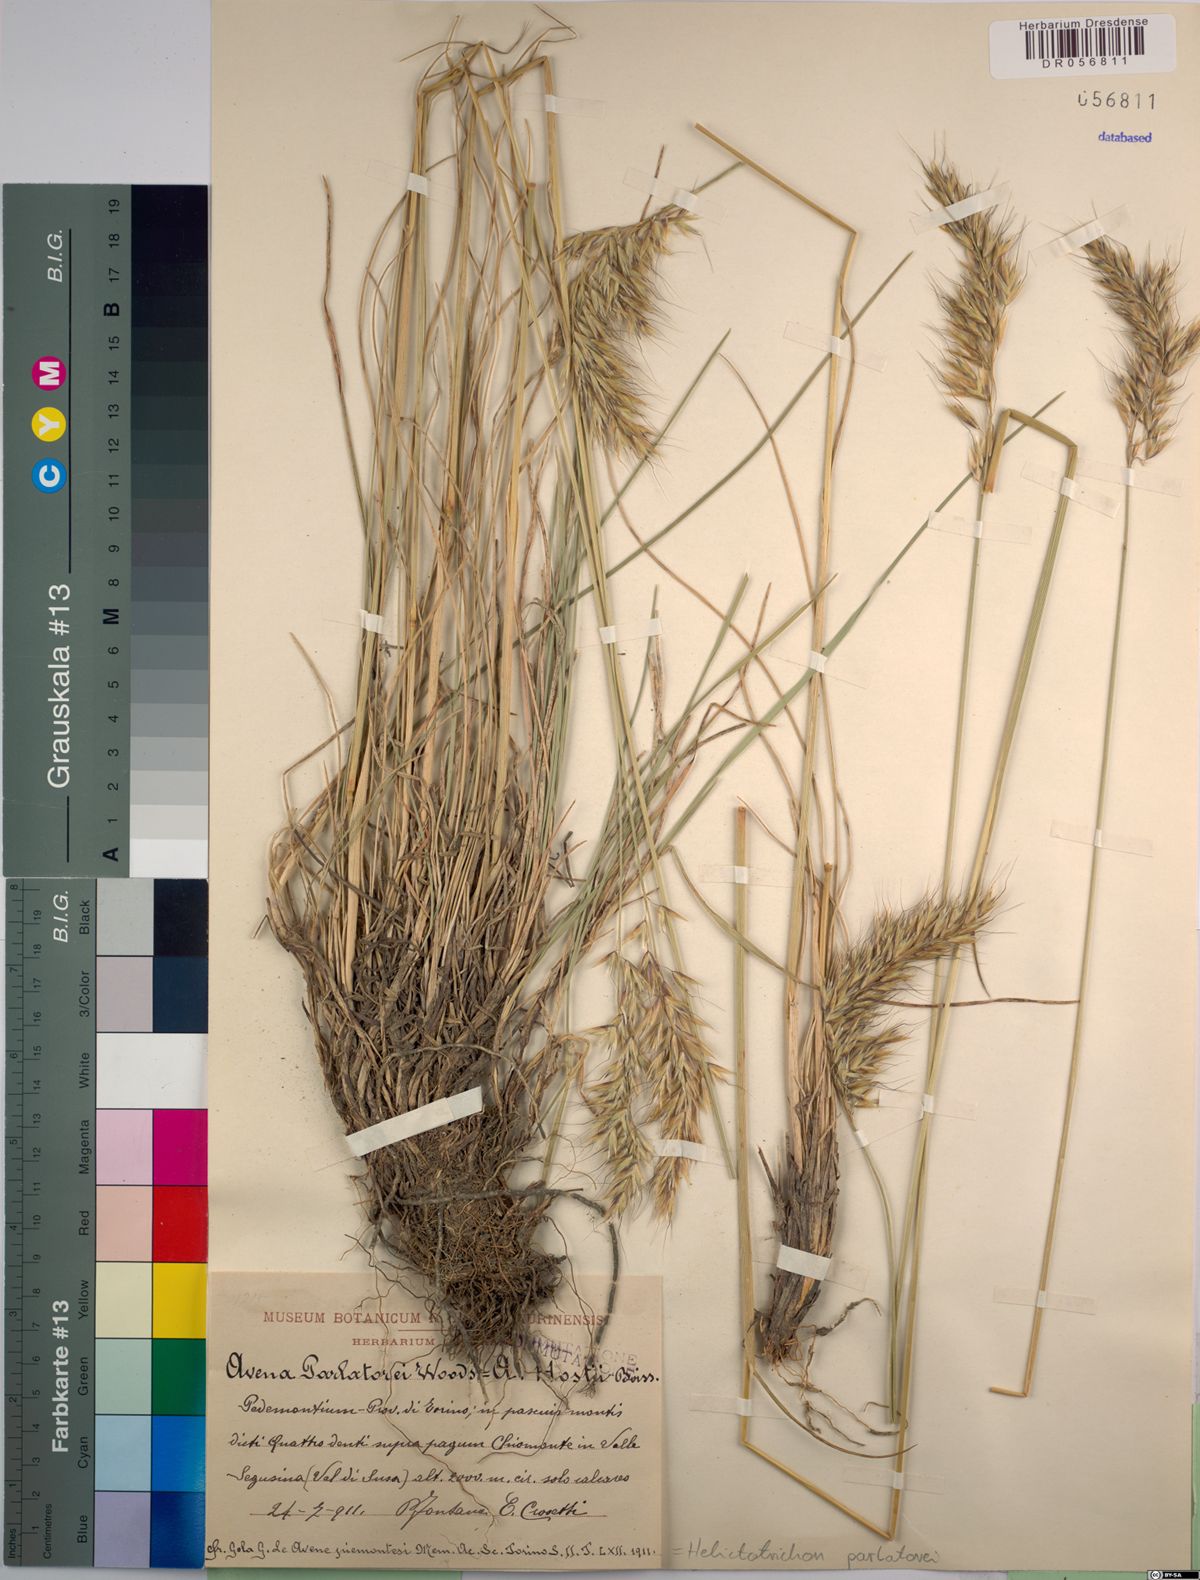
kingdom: Plantae
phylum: Tracheophyta
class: Liliopsida
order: Poales
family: Poaceae
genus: Helictotrichon
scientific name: Helictotrichon parlatorei
